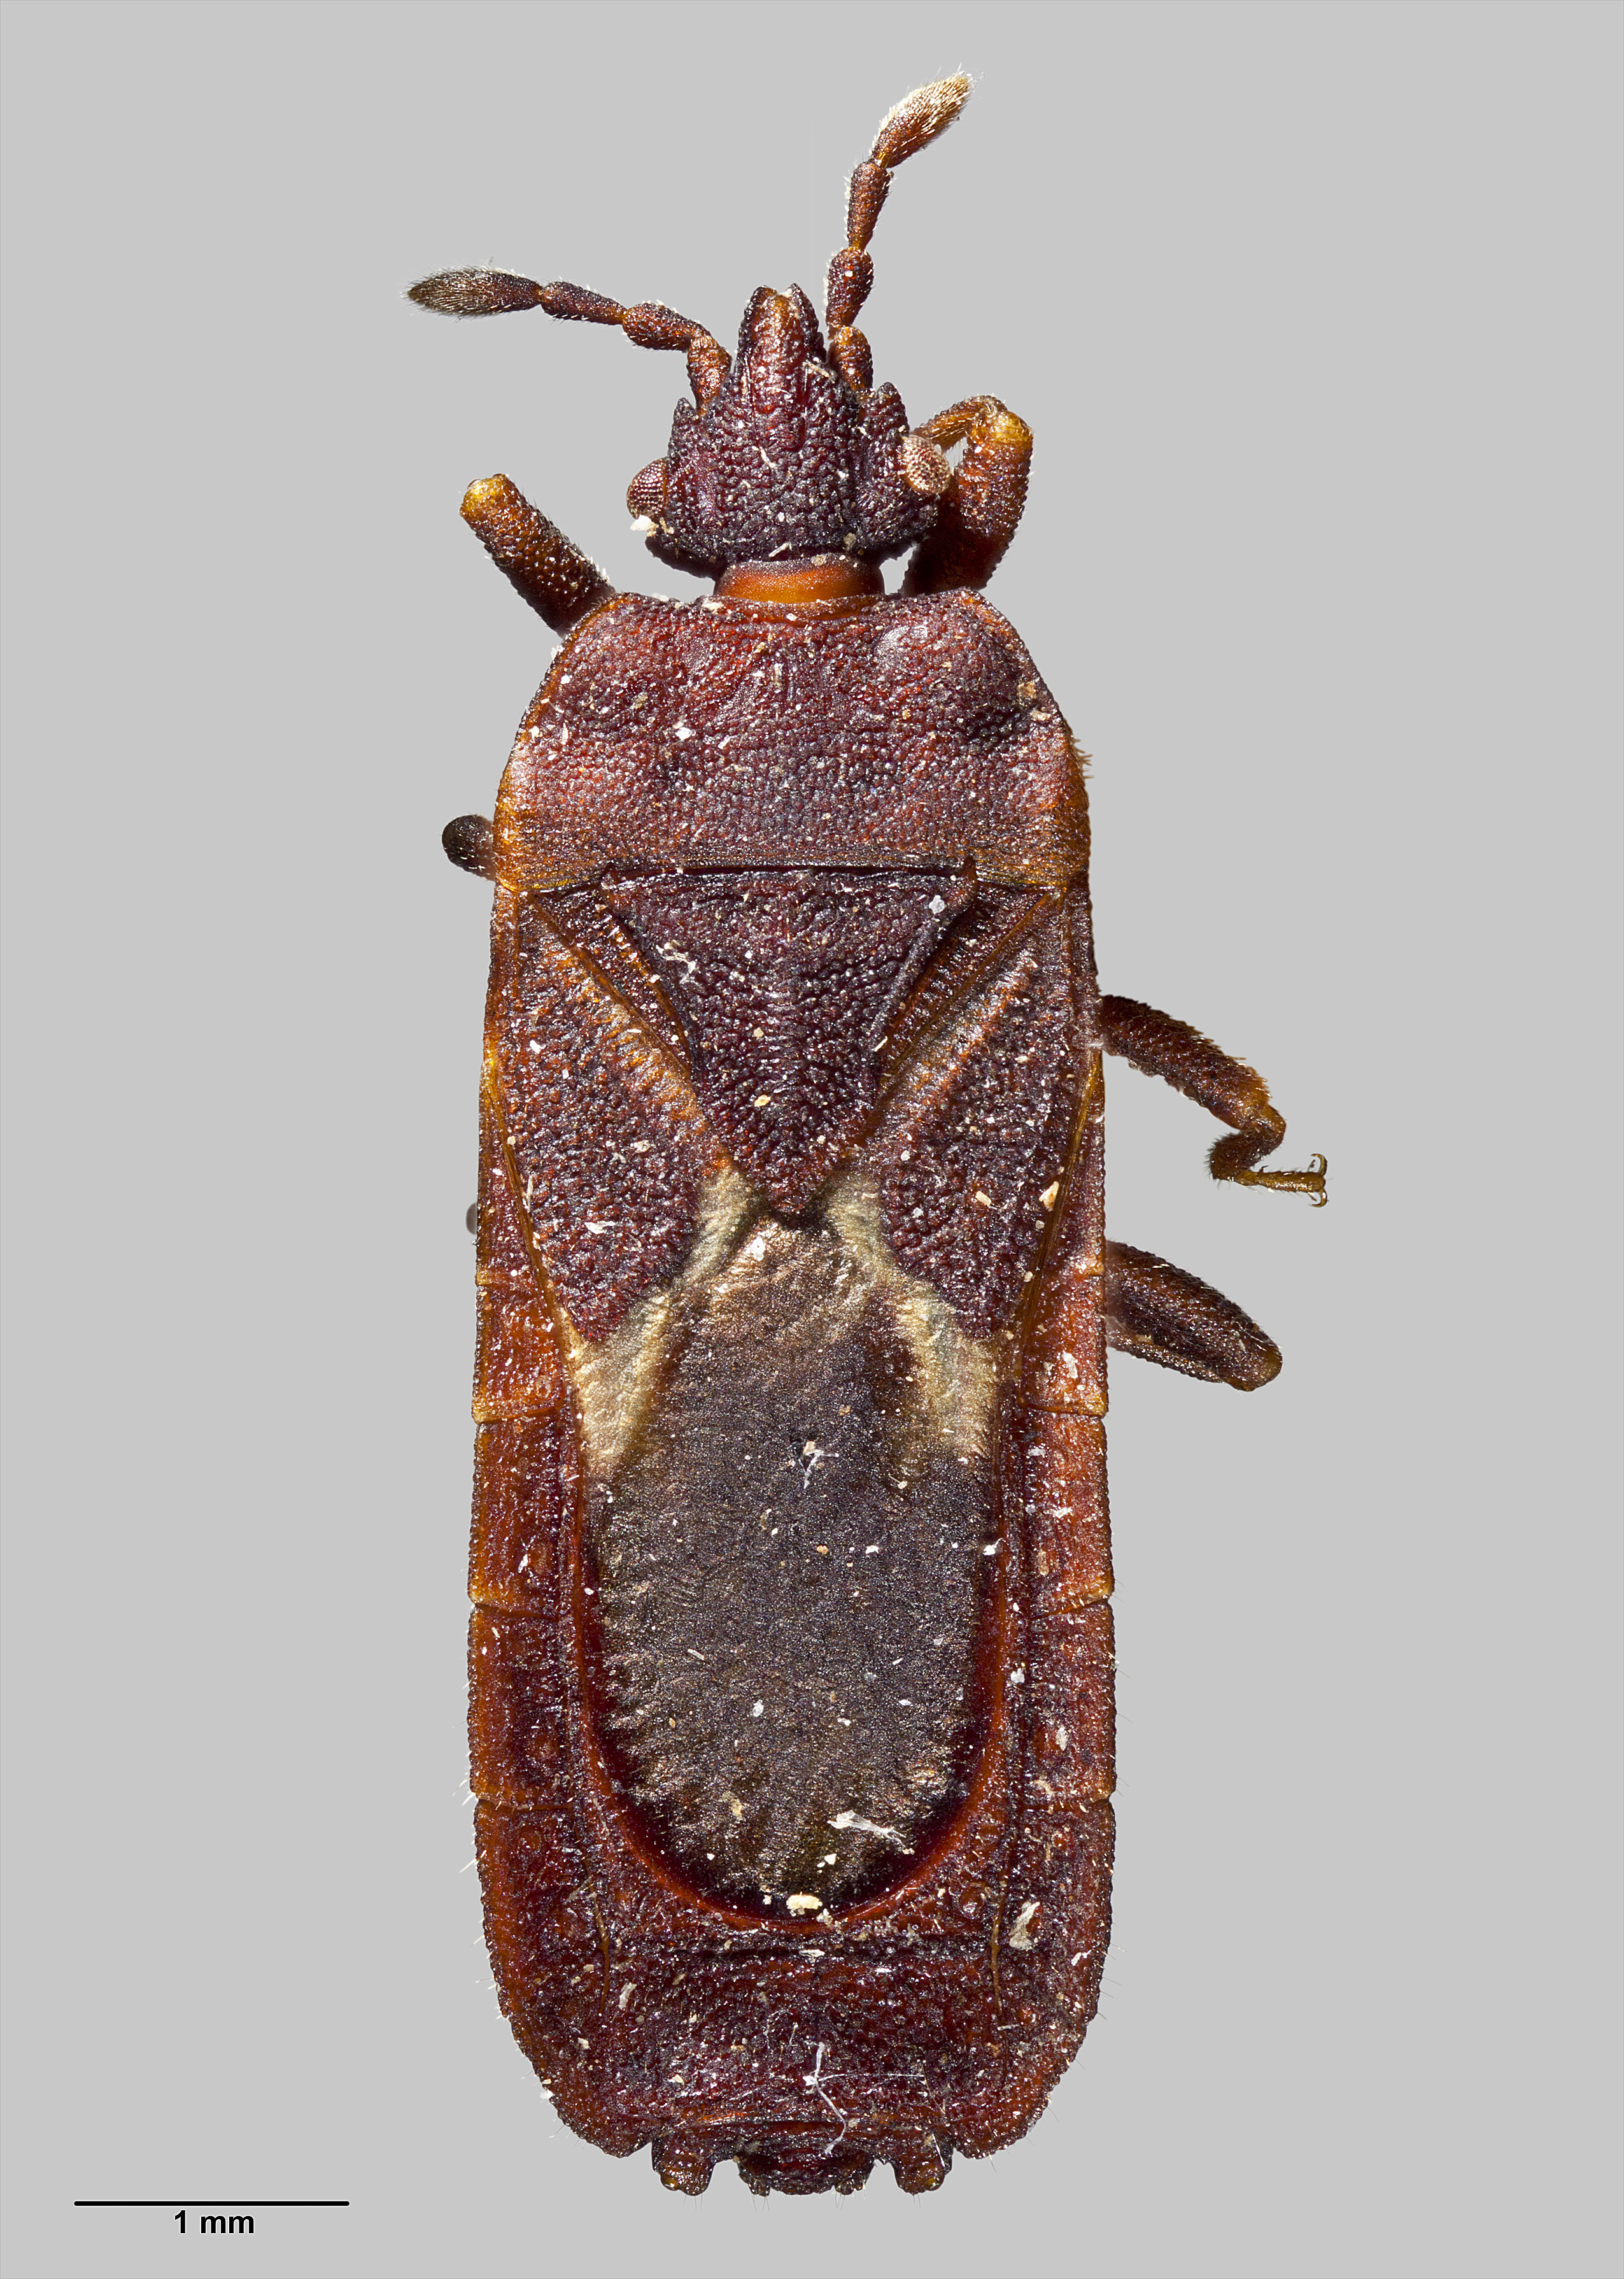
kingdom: Animalia
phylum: Arthropoda
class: Insecta
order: Hemiptera
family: Aradidae
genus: Ctenoneurus
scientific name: Ctenoneurus
